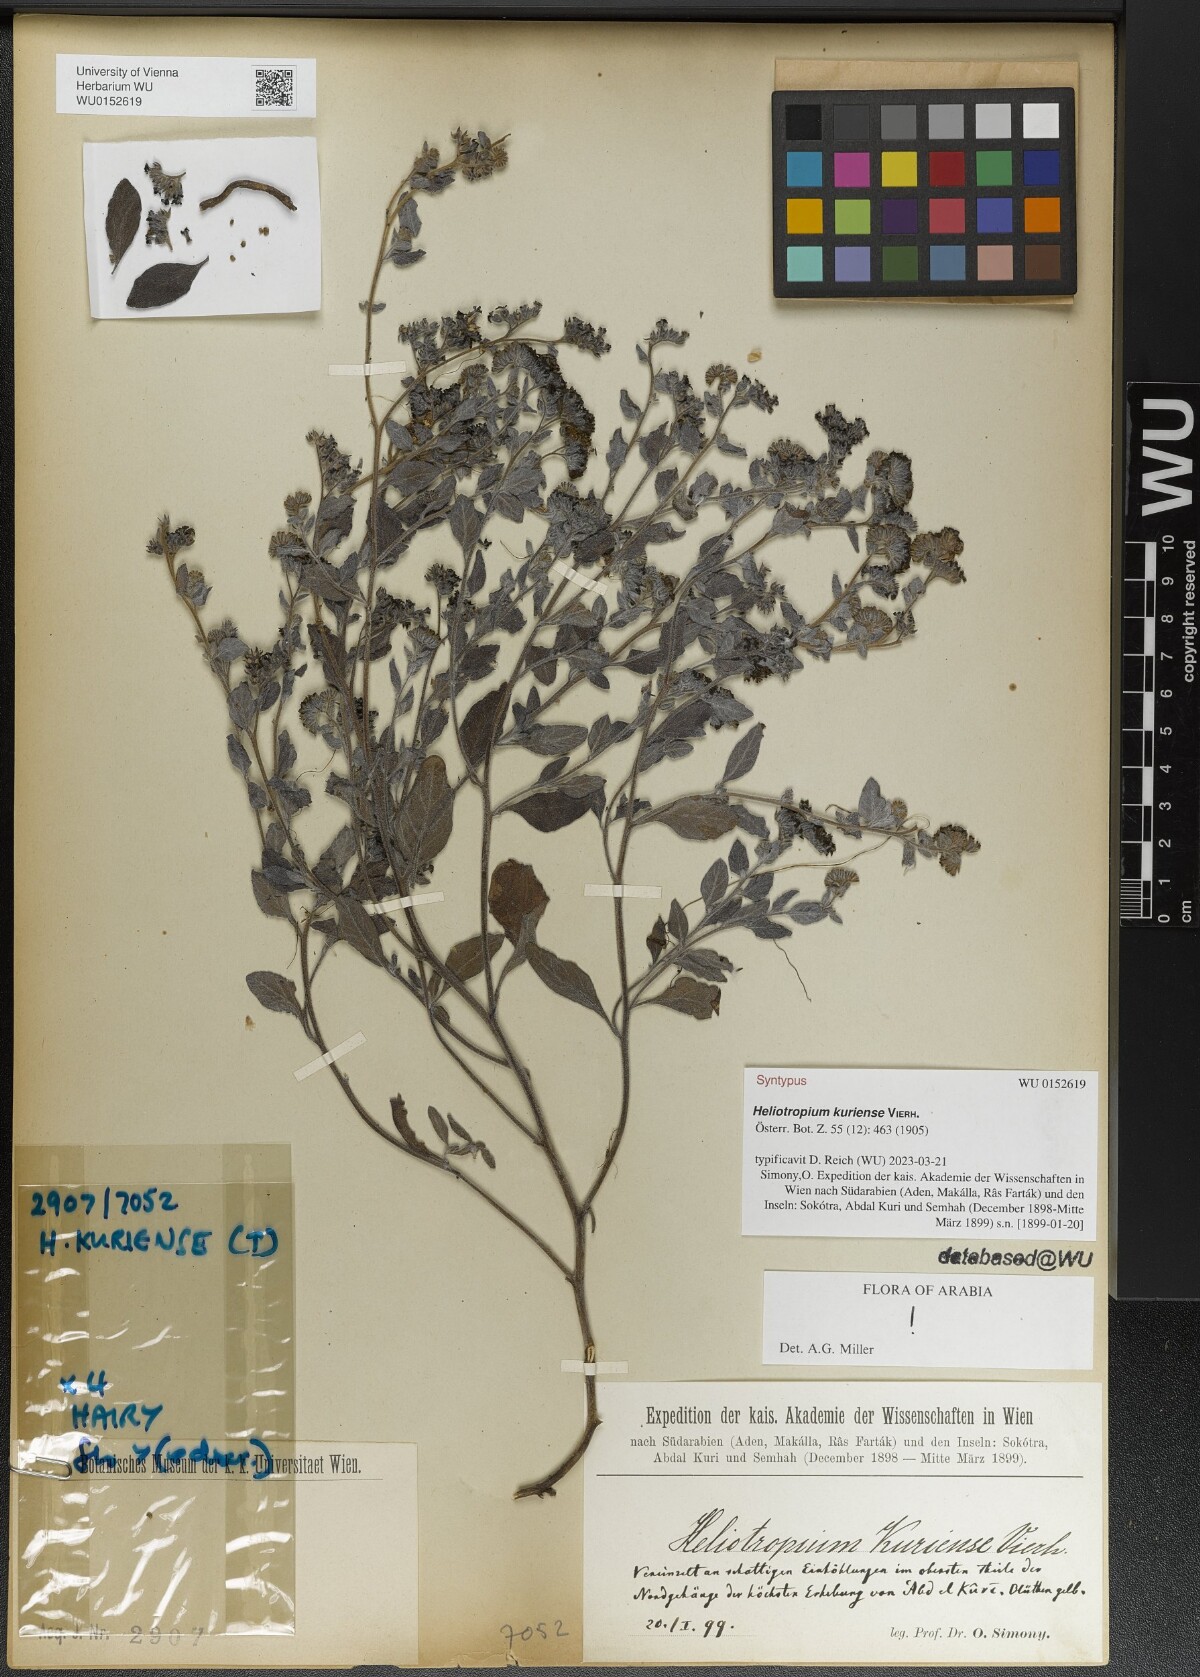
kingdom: Plantae
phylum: Tracheophyta
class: Magnoliopsida
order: Boraginales
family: Heliotropiaceae
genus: Heliotropium
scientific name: Heliotropium kuriense
